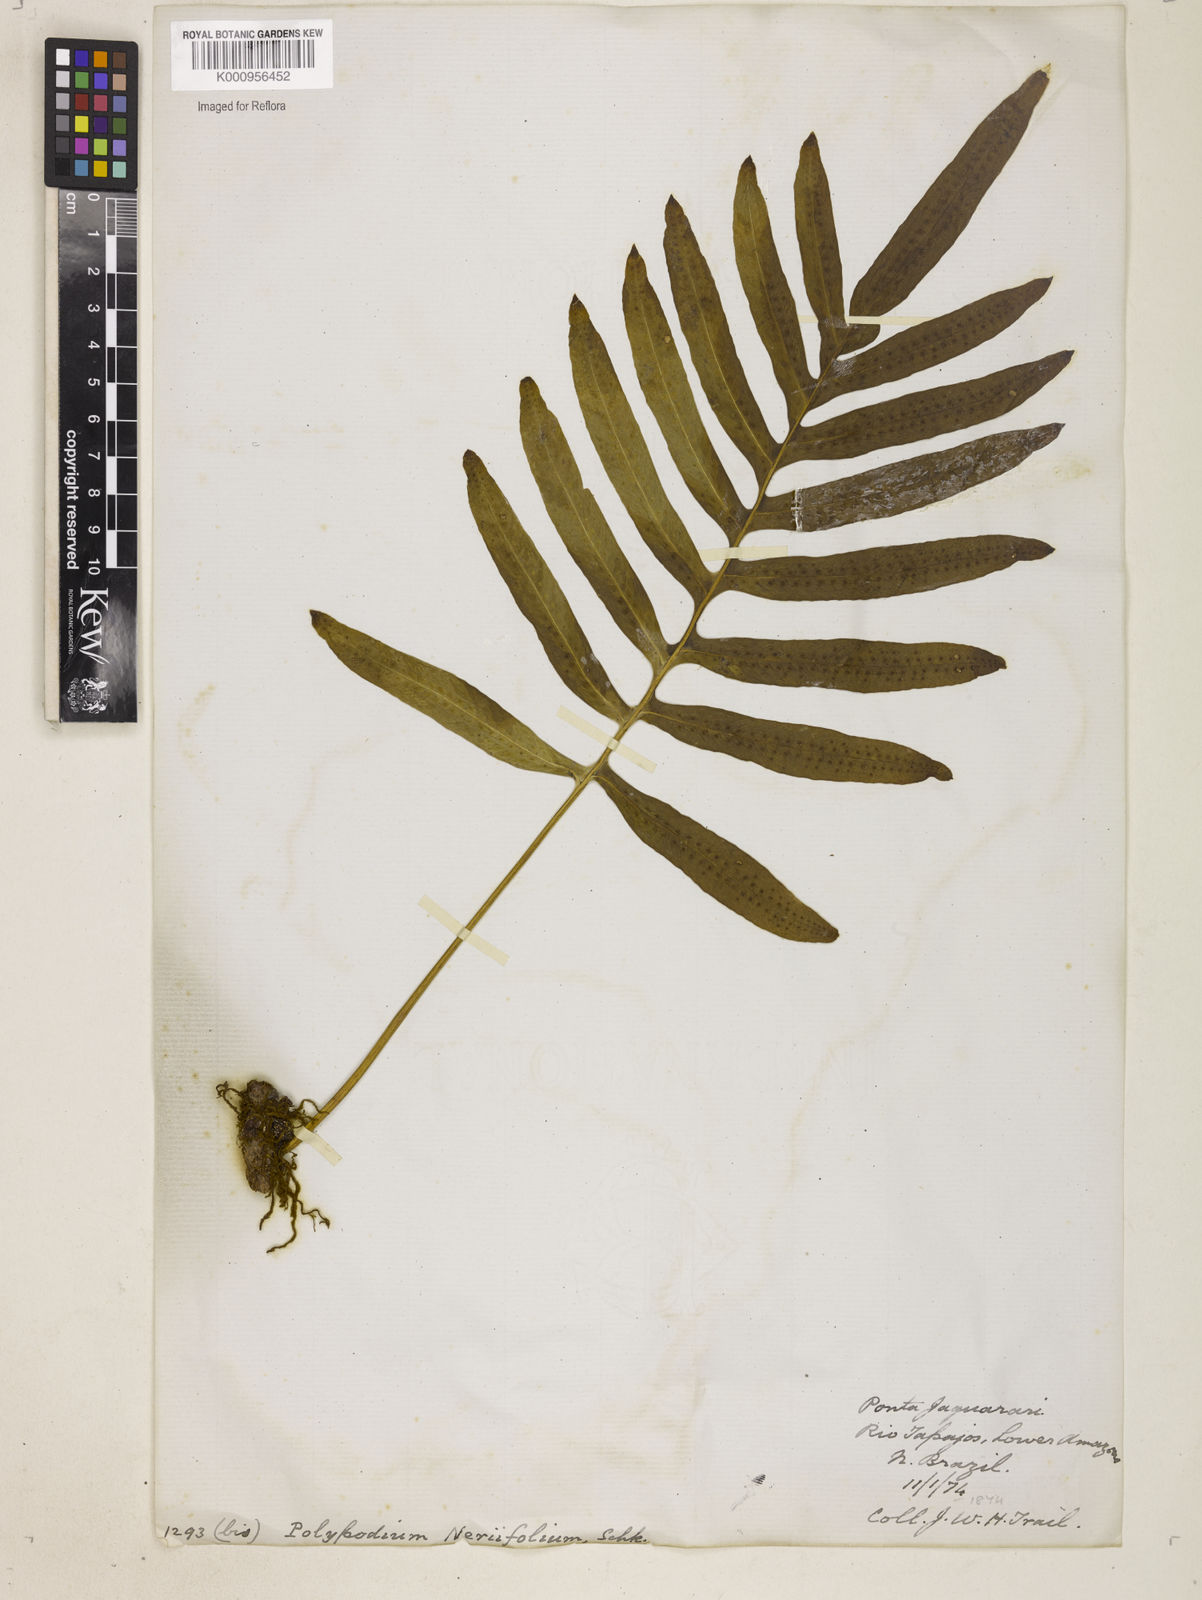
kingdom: Plantae
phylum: Tracheophyta
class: Polypodiopsida
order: Polypodiales
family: Polypodiaceae
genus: Polypodium
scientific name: Polypodium
